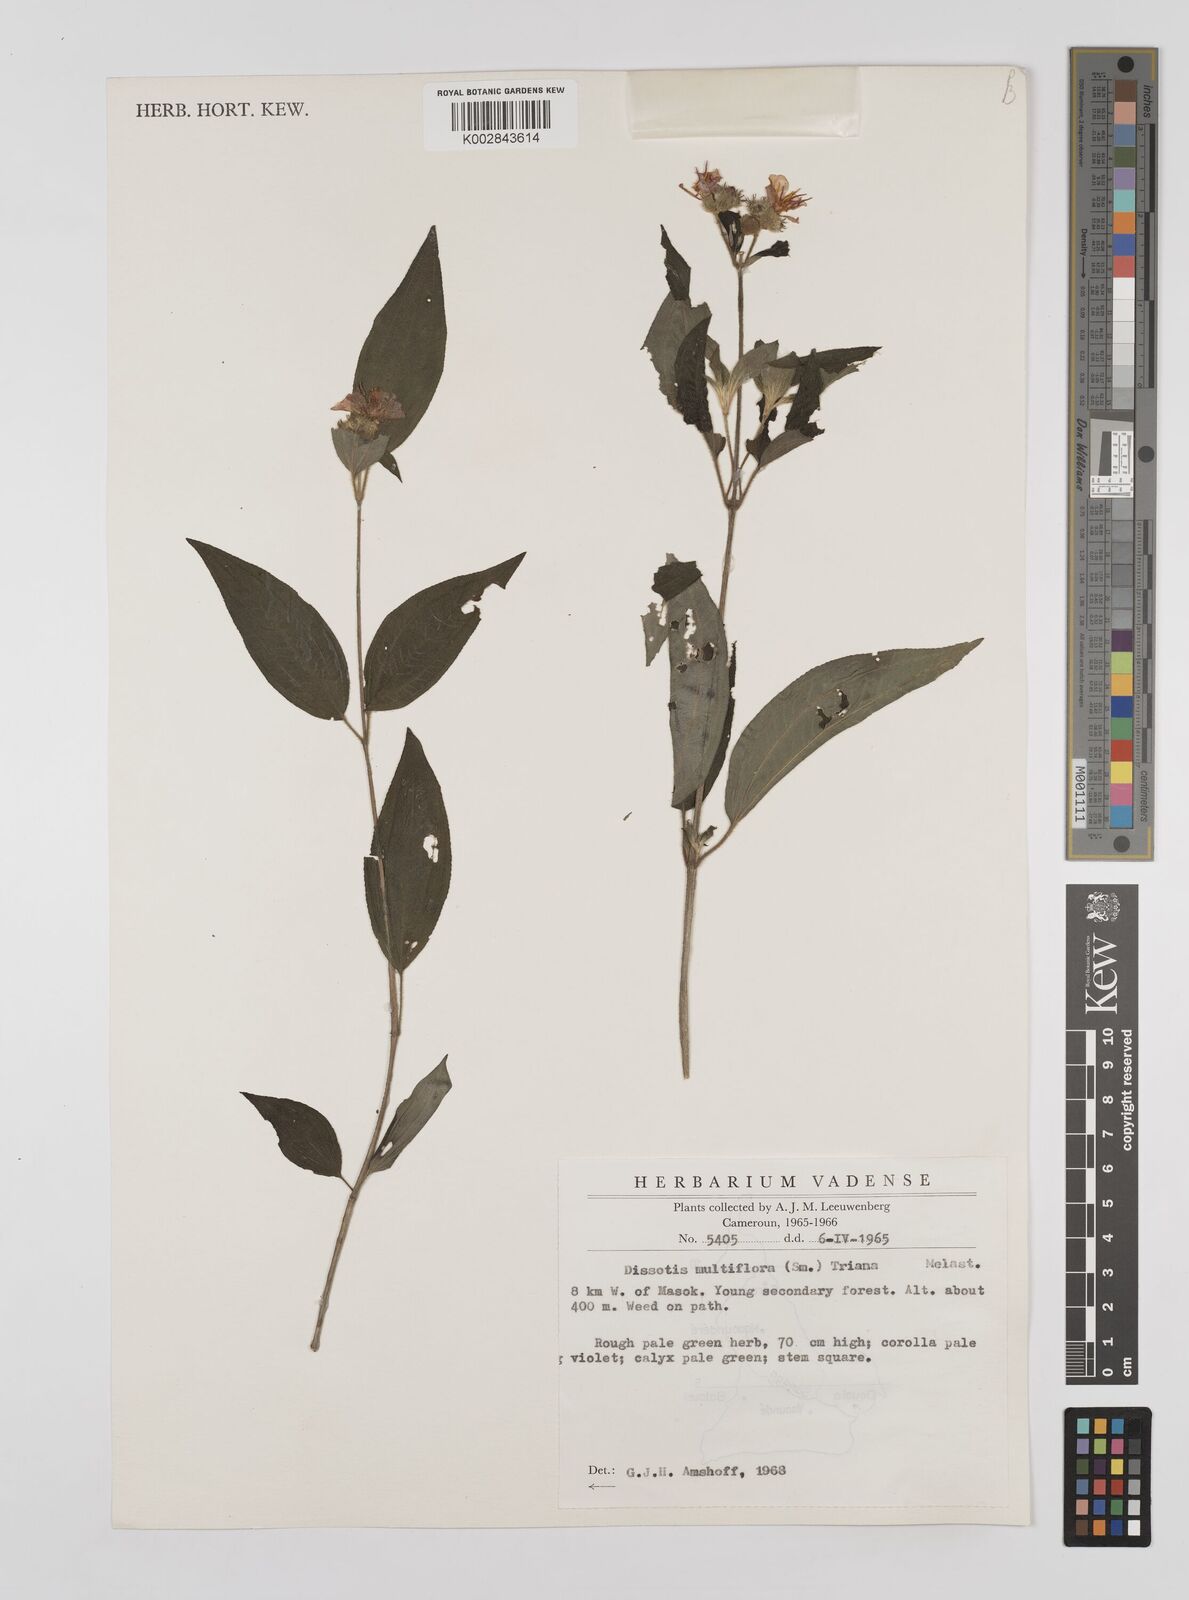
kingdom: Plantae
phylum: Tracheophyta
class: Magnoliopsida
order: Myrtales
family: Melastomataceae
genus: Dupineta
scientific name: Dupineta multiflora
